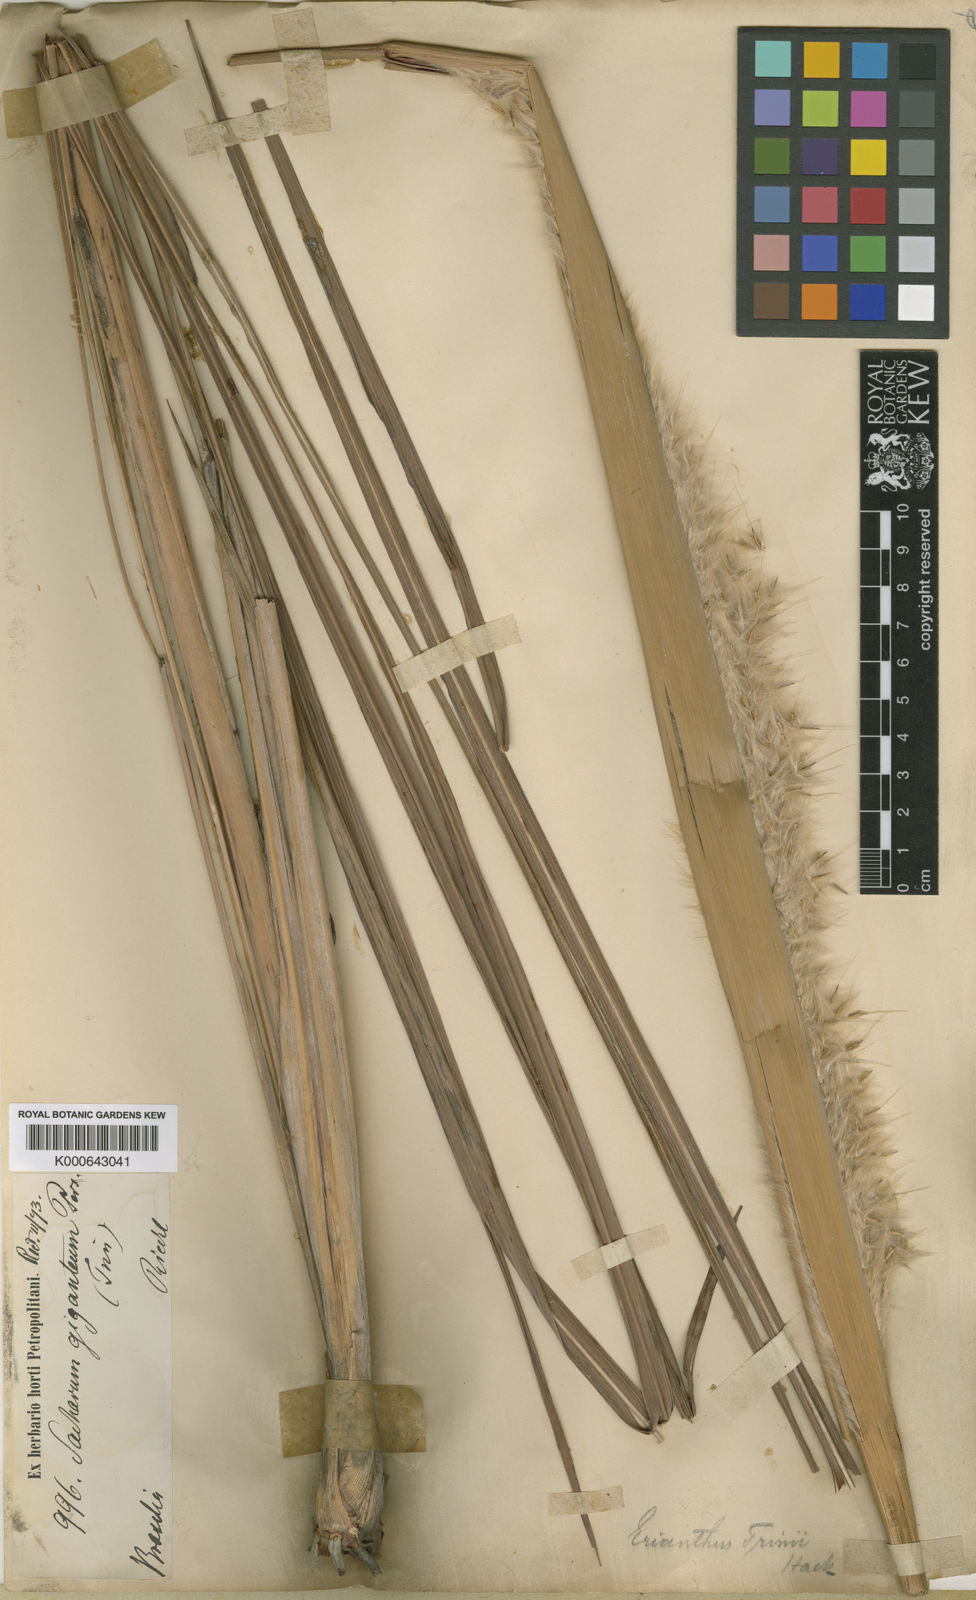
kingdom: Plantae
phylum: Tracheophyta
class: Liliopsida
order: Poales
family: Poaceae
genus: Erianthus
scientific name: Erianthus trinii
